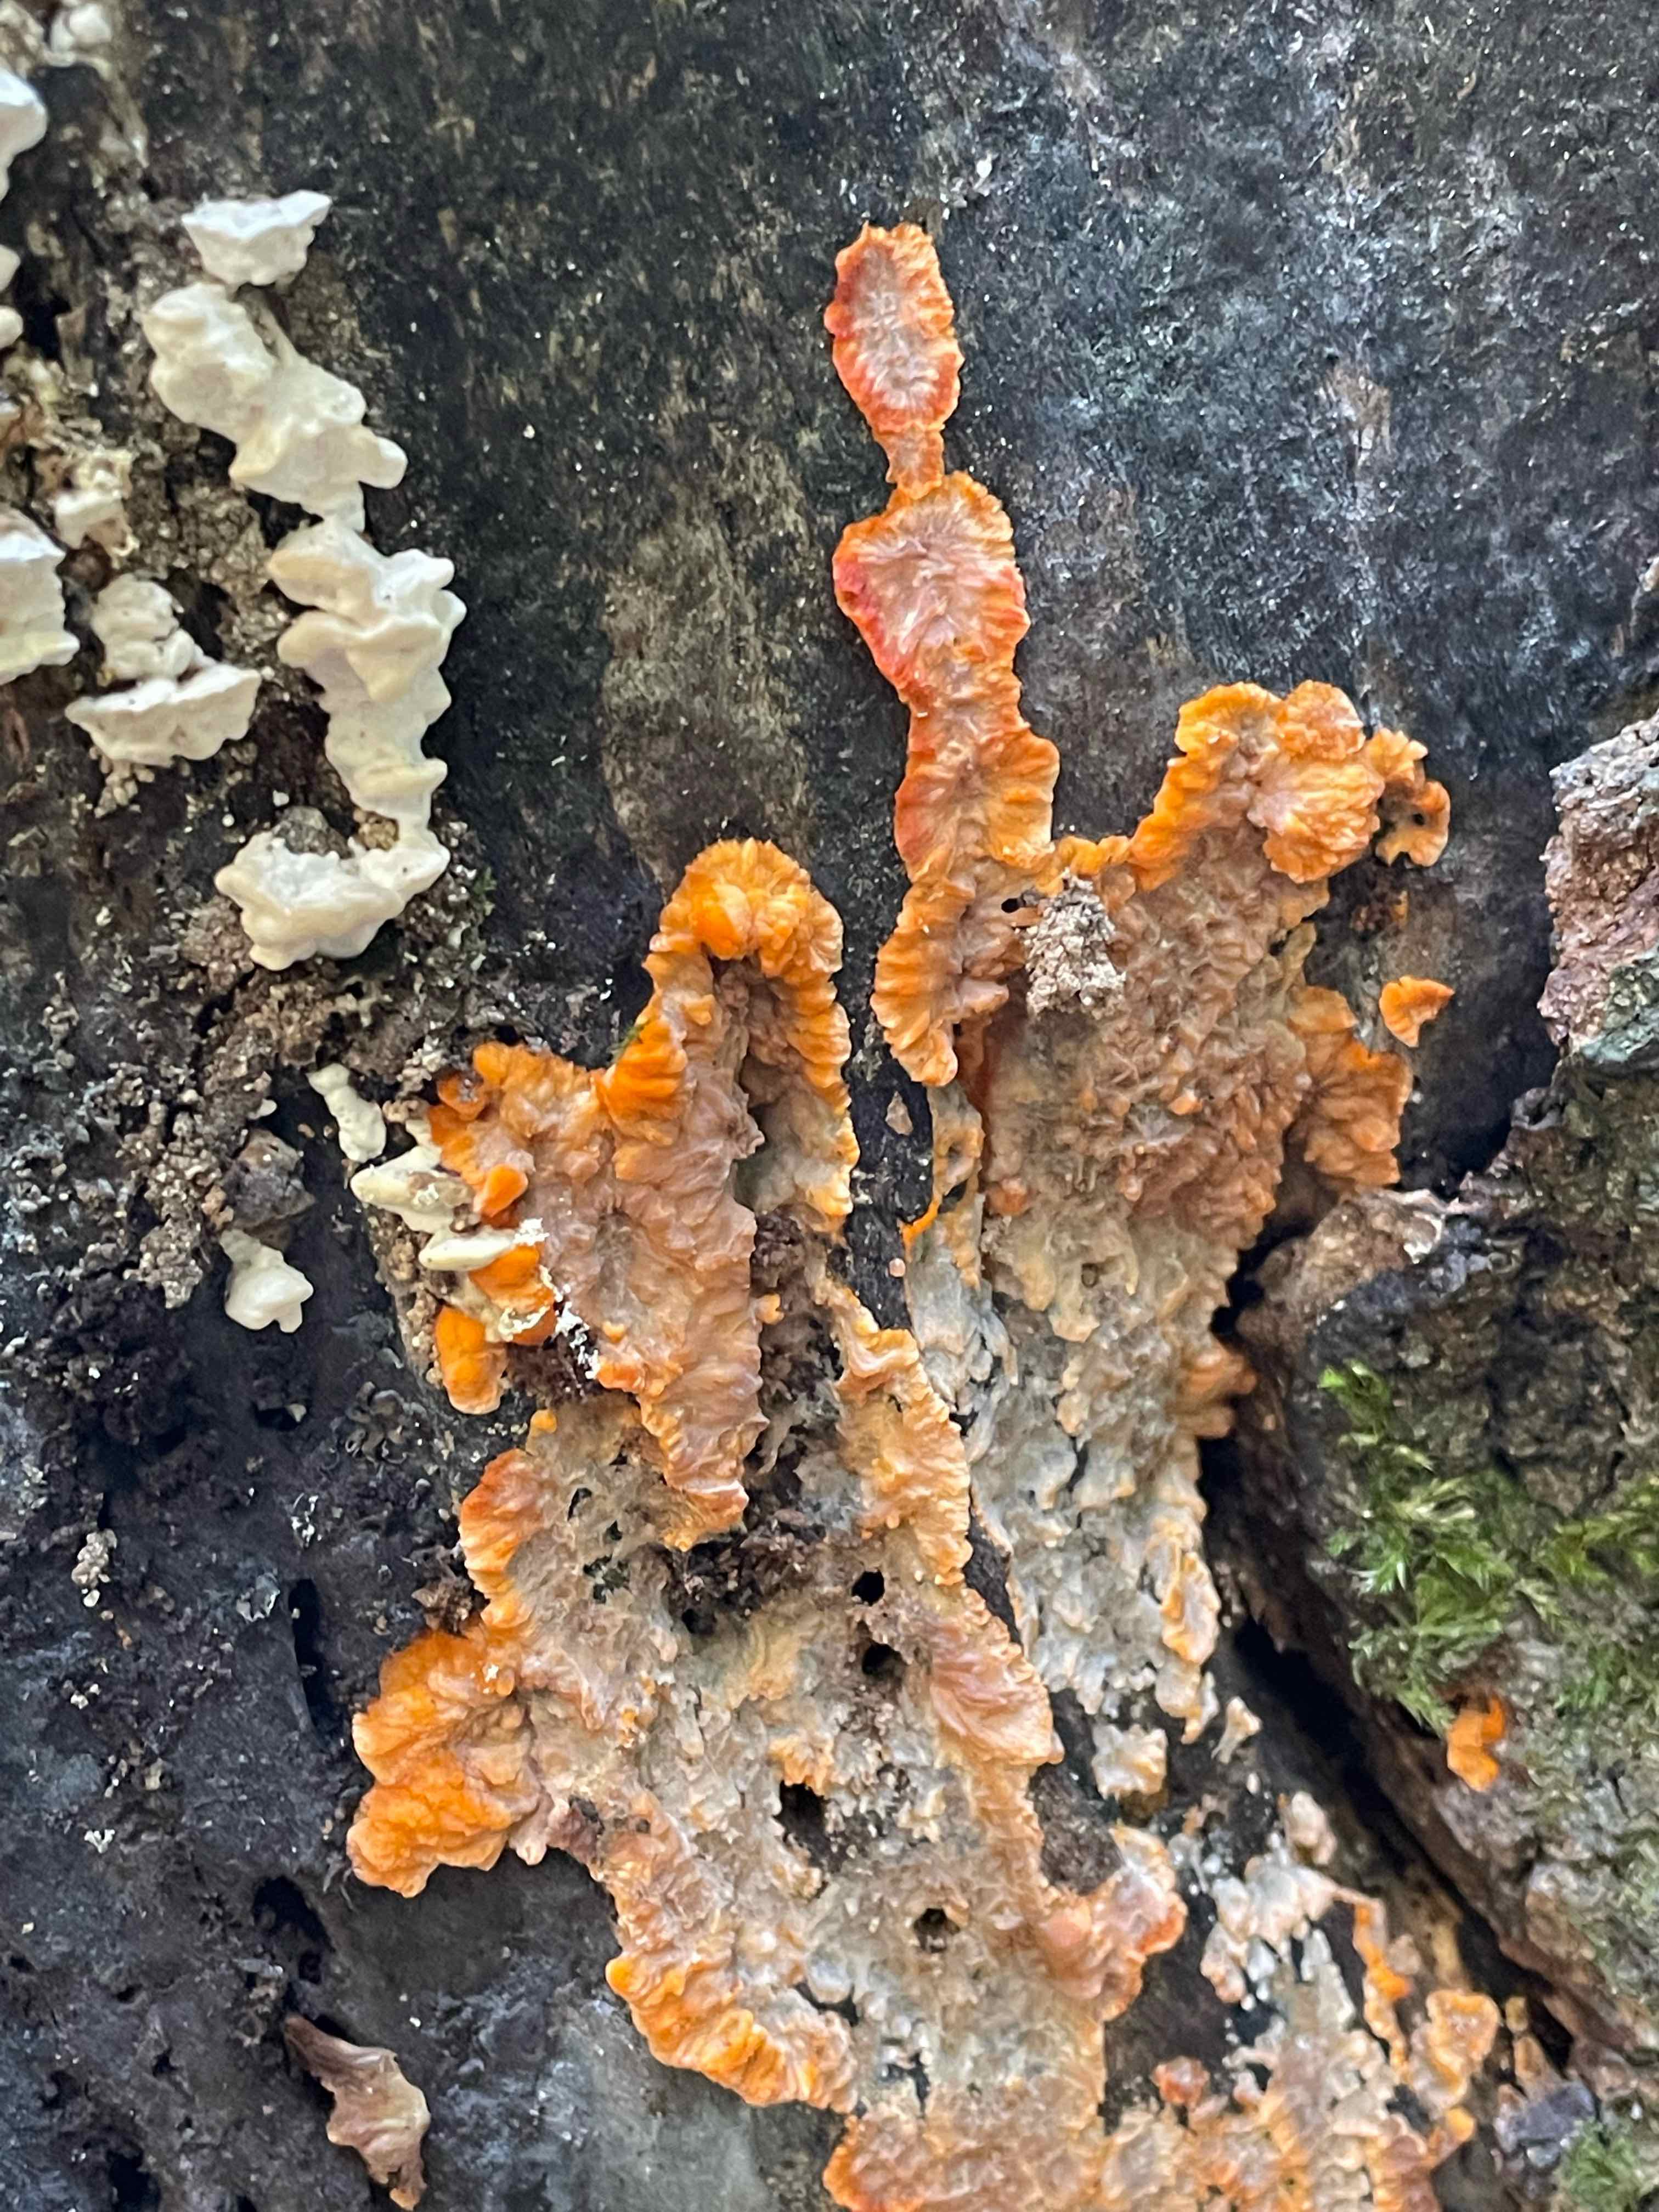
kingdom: Fungi
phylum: Basidiomycota
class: Agaricomycetes
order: Polyporales
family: Meruliaceae
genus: Phlebia
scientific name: Phlebia radiata
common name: stråle-åresvamp
